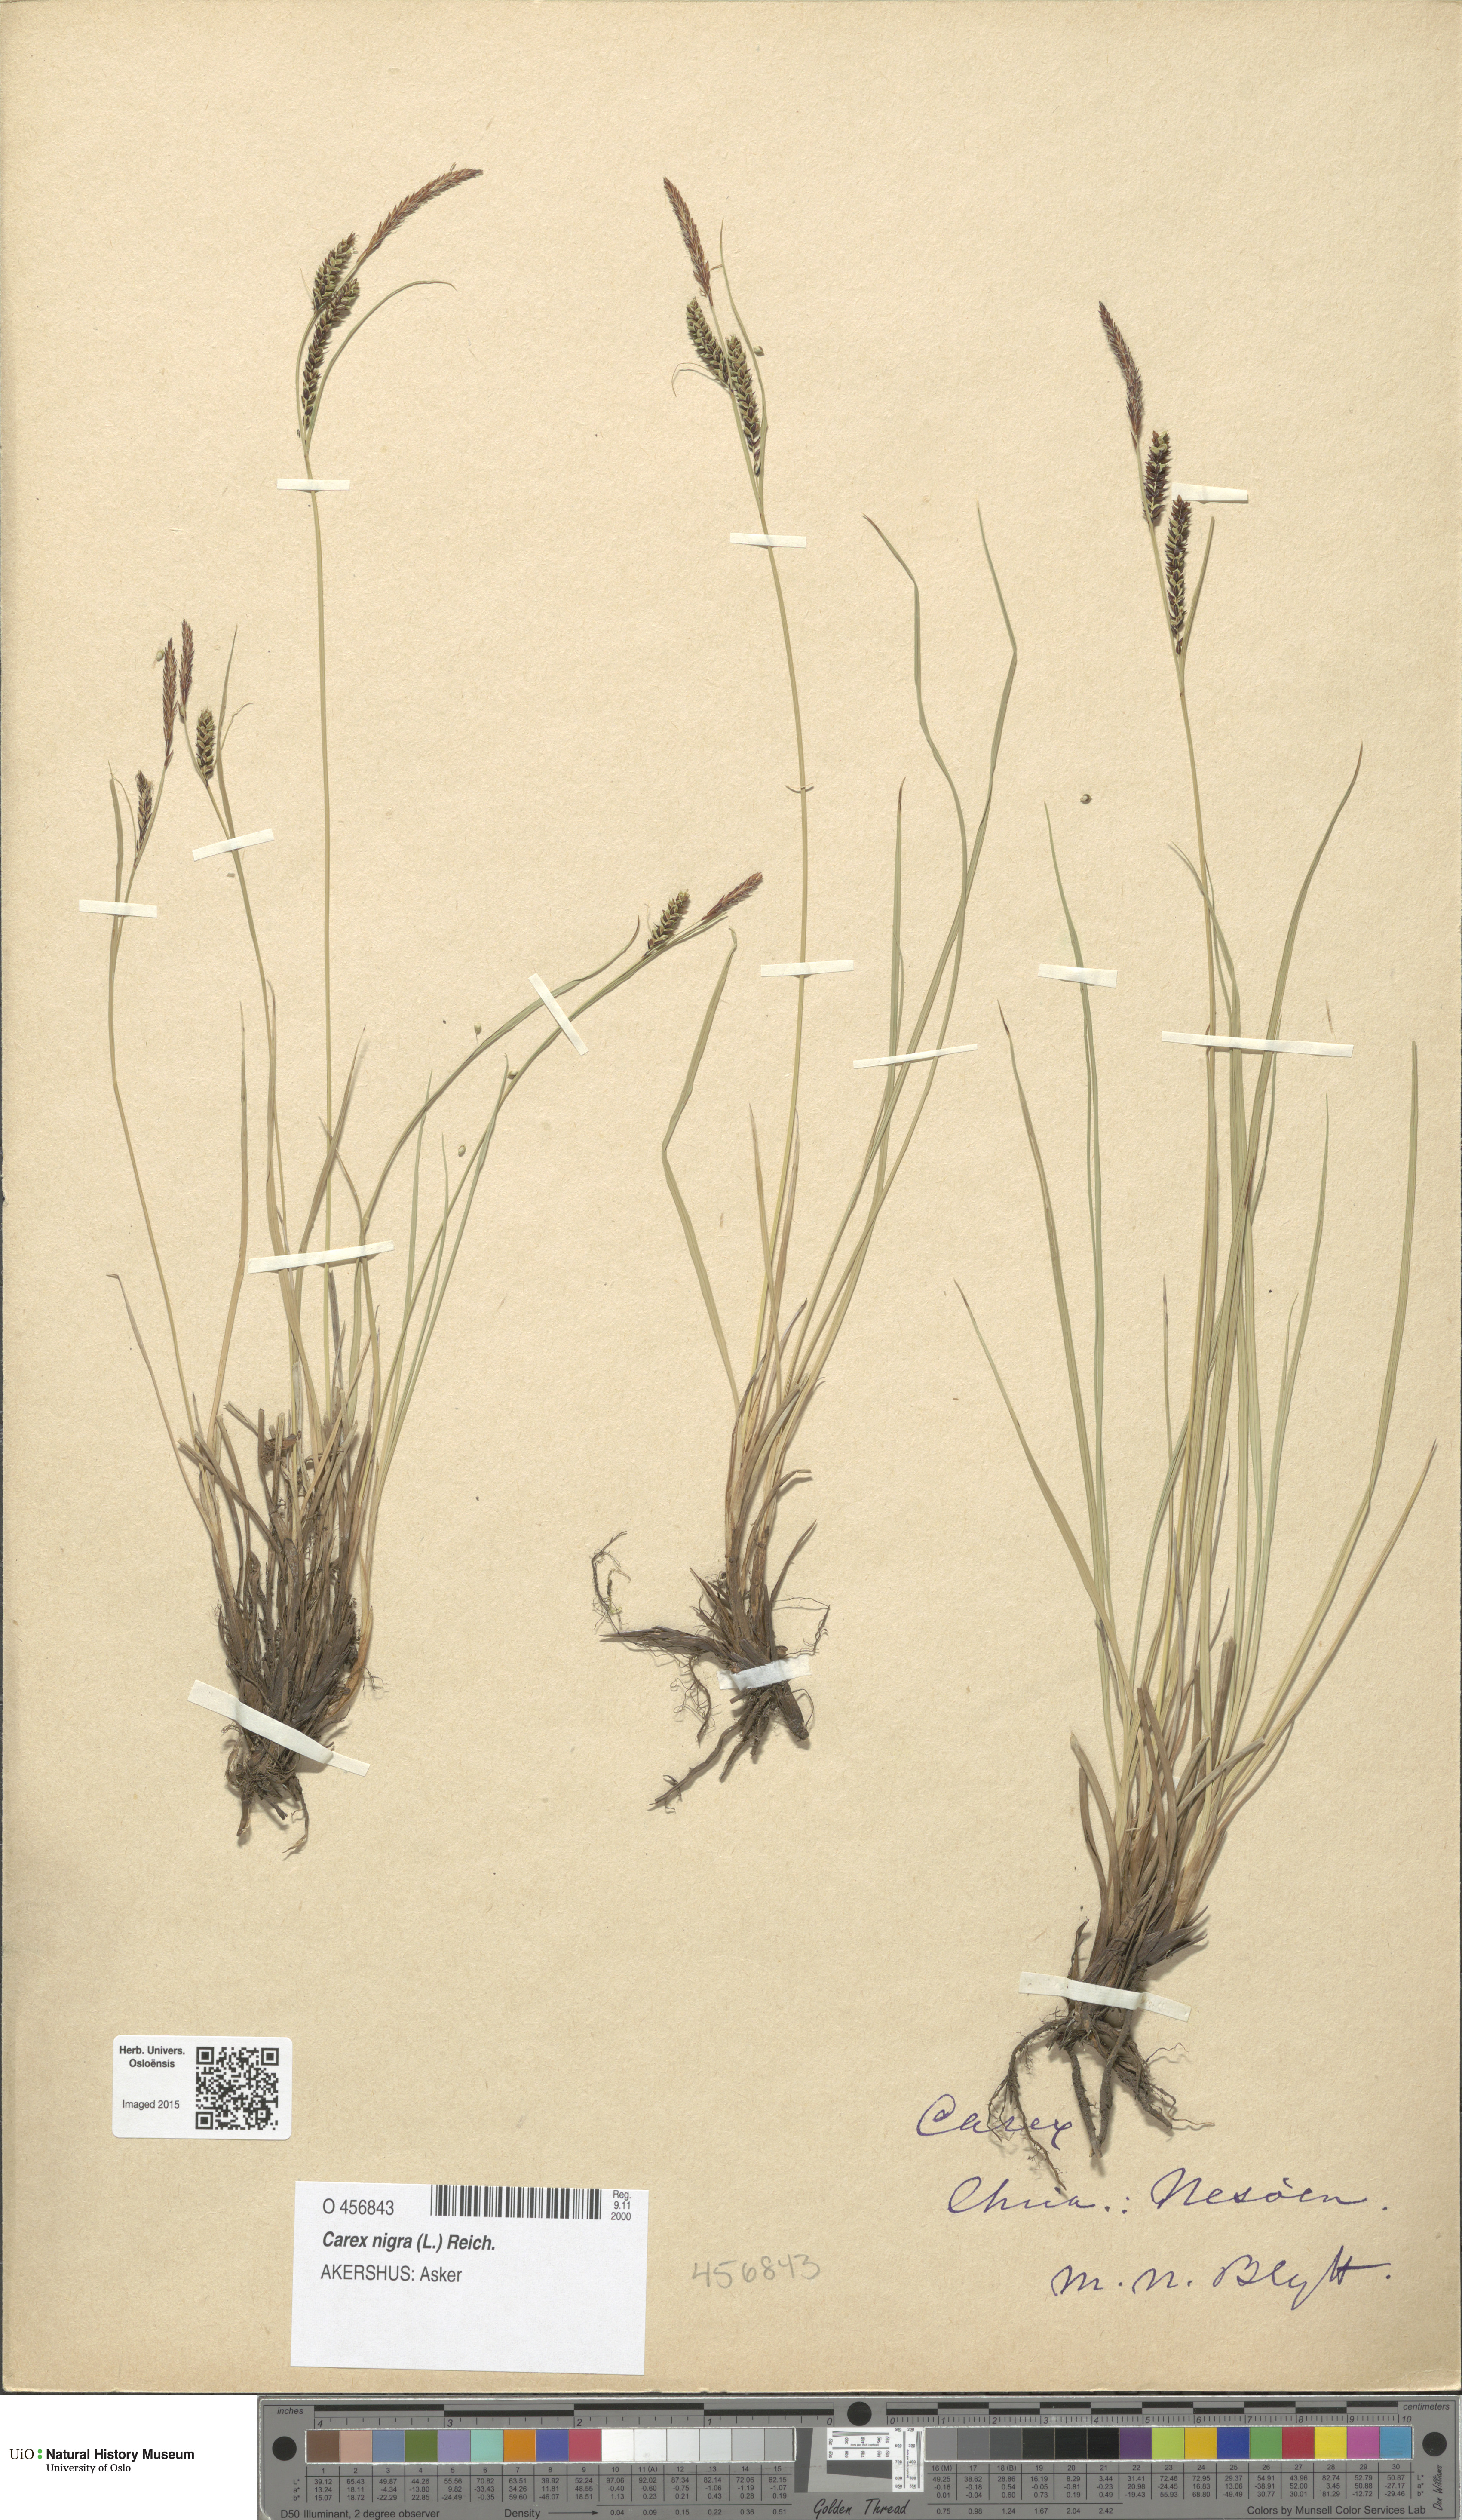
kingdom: Plantae
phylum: Tracheophyta
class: Liliopsida
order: Poales
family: Cyperaceae
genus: Carex
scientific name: Carex nigra
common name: Common sedge
